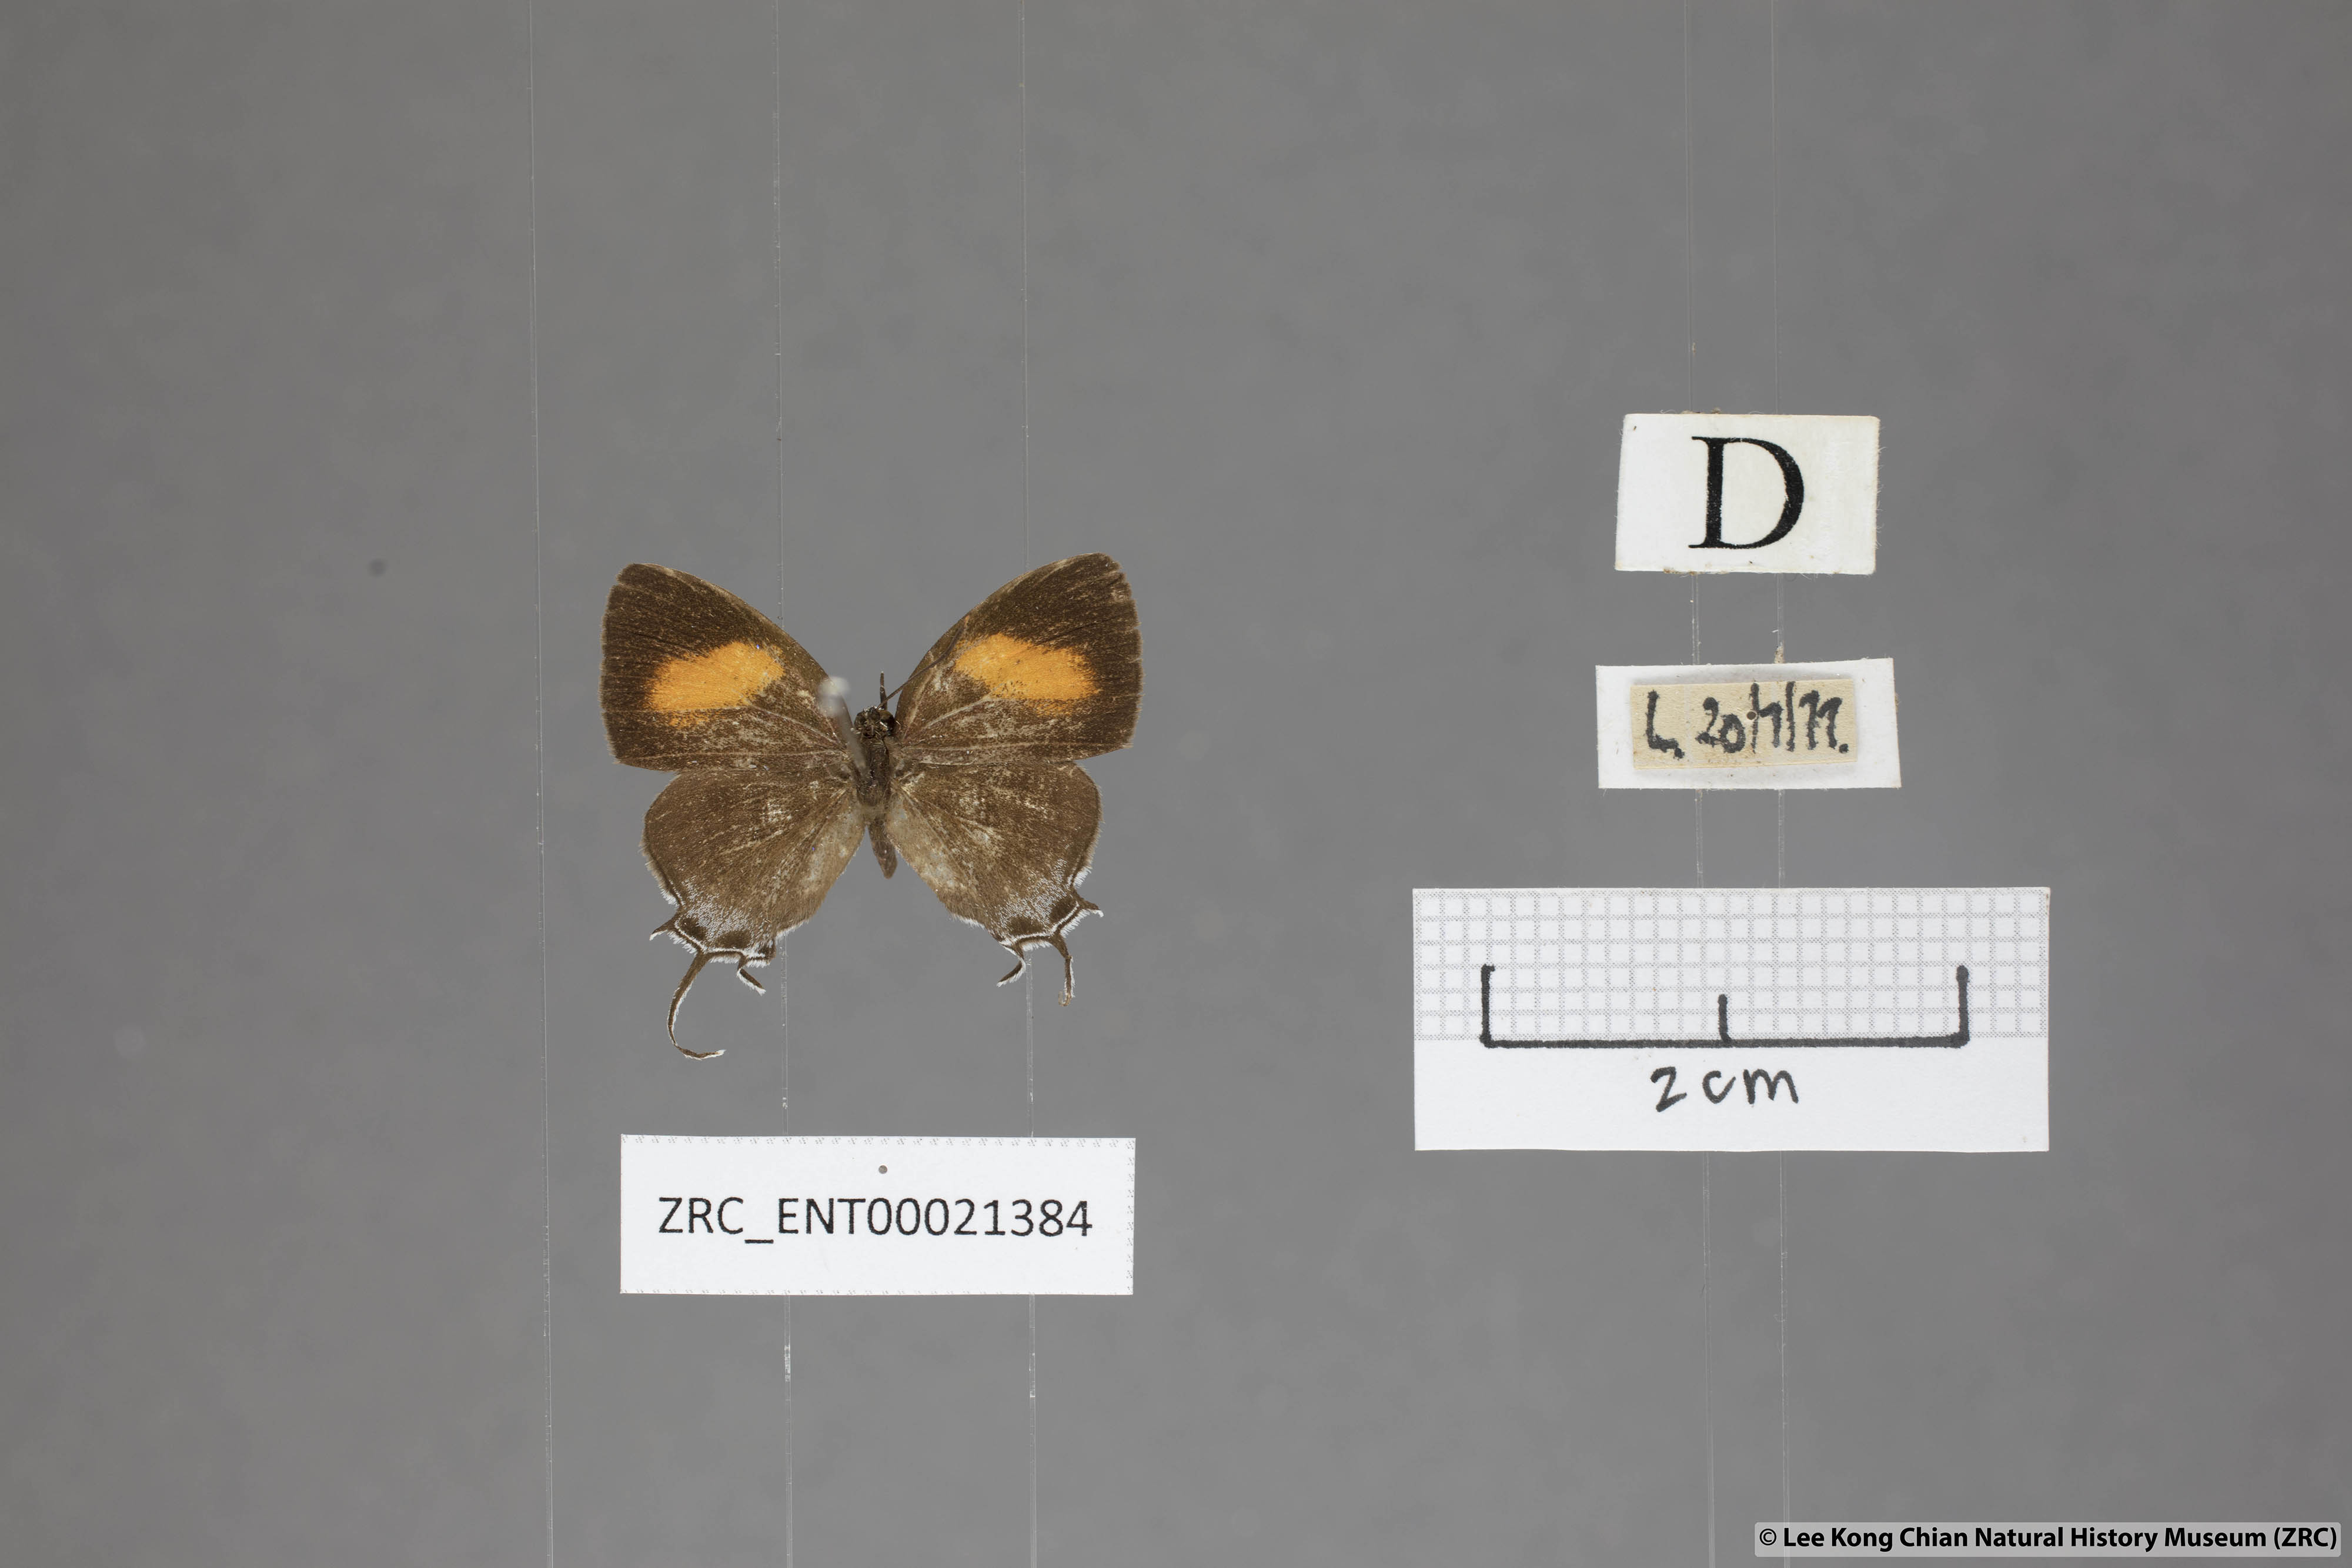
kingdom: Animalia
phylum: Arthropoda
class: Insecta
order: Lepidoptera
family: Lycaenidae
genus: Drupadia
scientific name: Drupadia niasica
